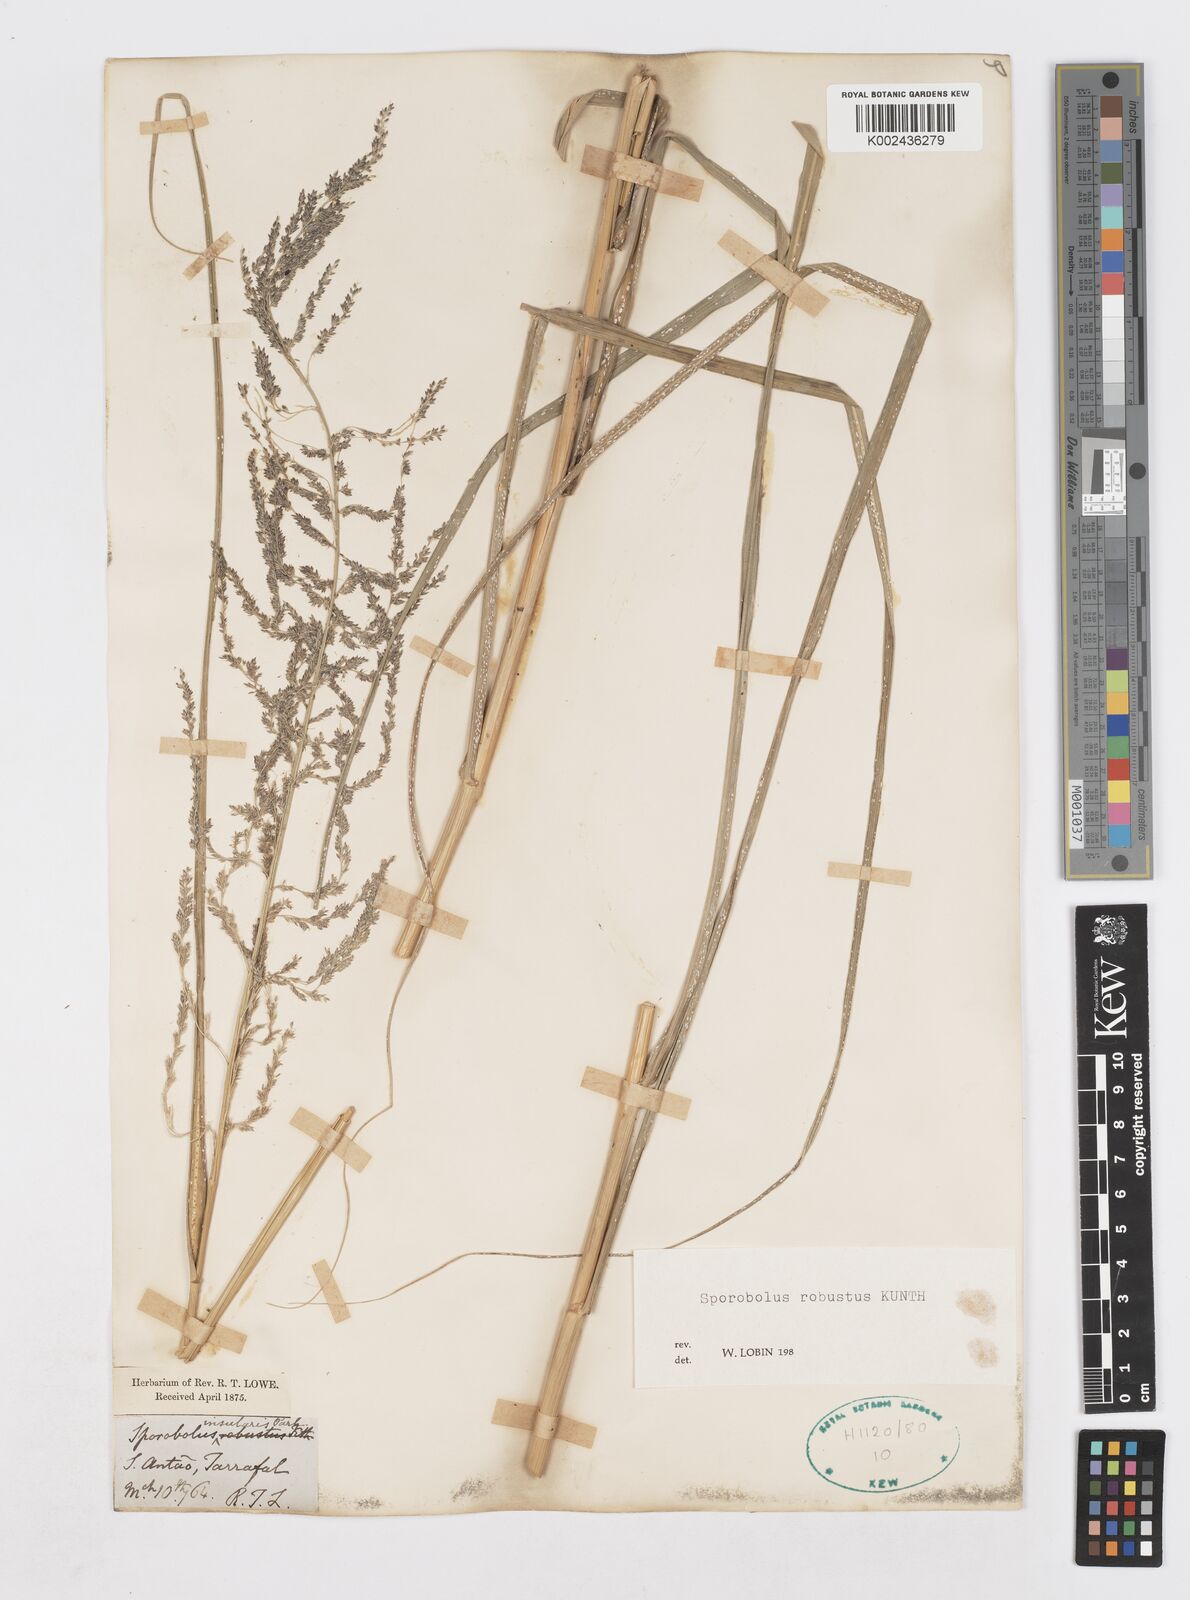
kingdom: Plantae
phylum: Tracheophyta
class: Liliopsida
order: Poales
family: Poaceae
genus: Sporobolus
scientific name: Sporobolus robustus
